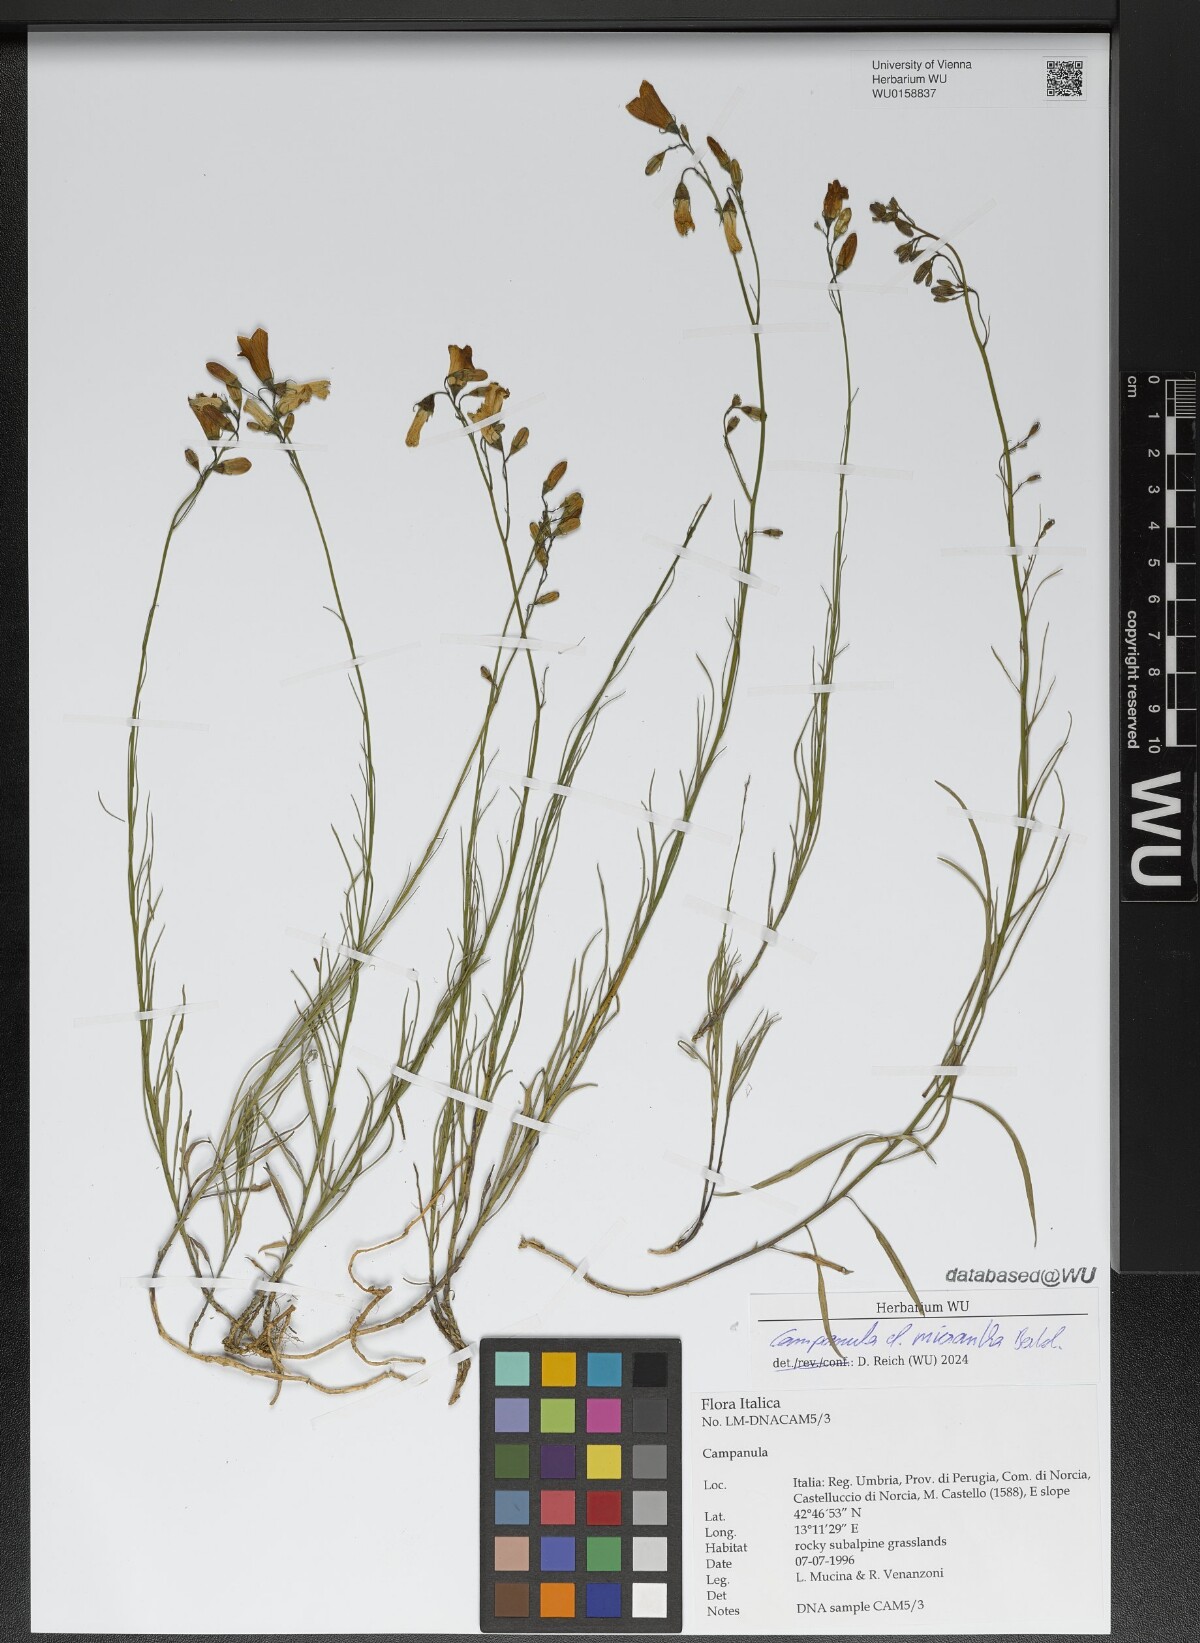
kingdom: Plantae
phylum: Tracheophyta
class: Magnoliopsida
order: Asterales
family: Campanulaceae
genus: Campanula
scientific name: Campanula micrantha
